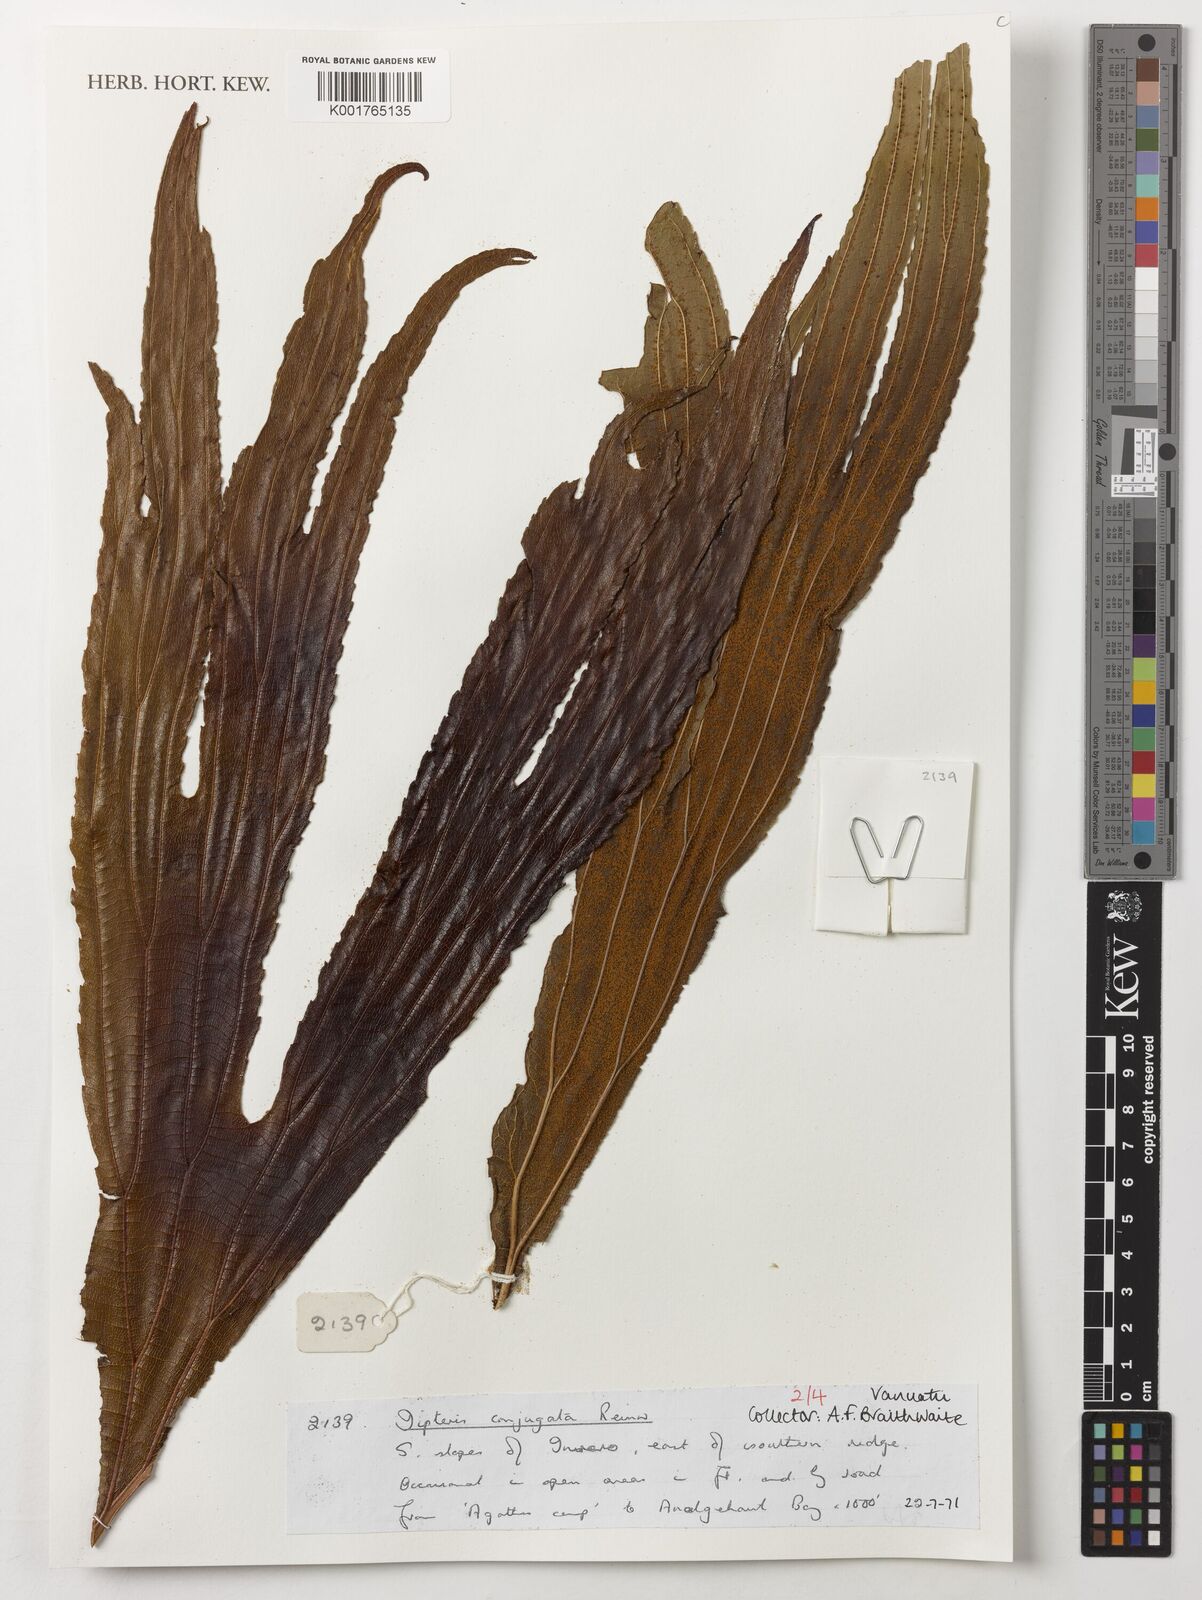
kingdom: Plantae
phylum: Tracheophyta
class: Polypodiopsida
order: Gleicheniales
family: Dipteridaceae
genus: Dipteris
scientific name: Dipteris conjugata
